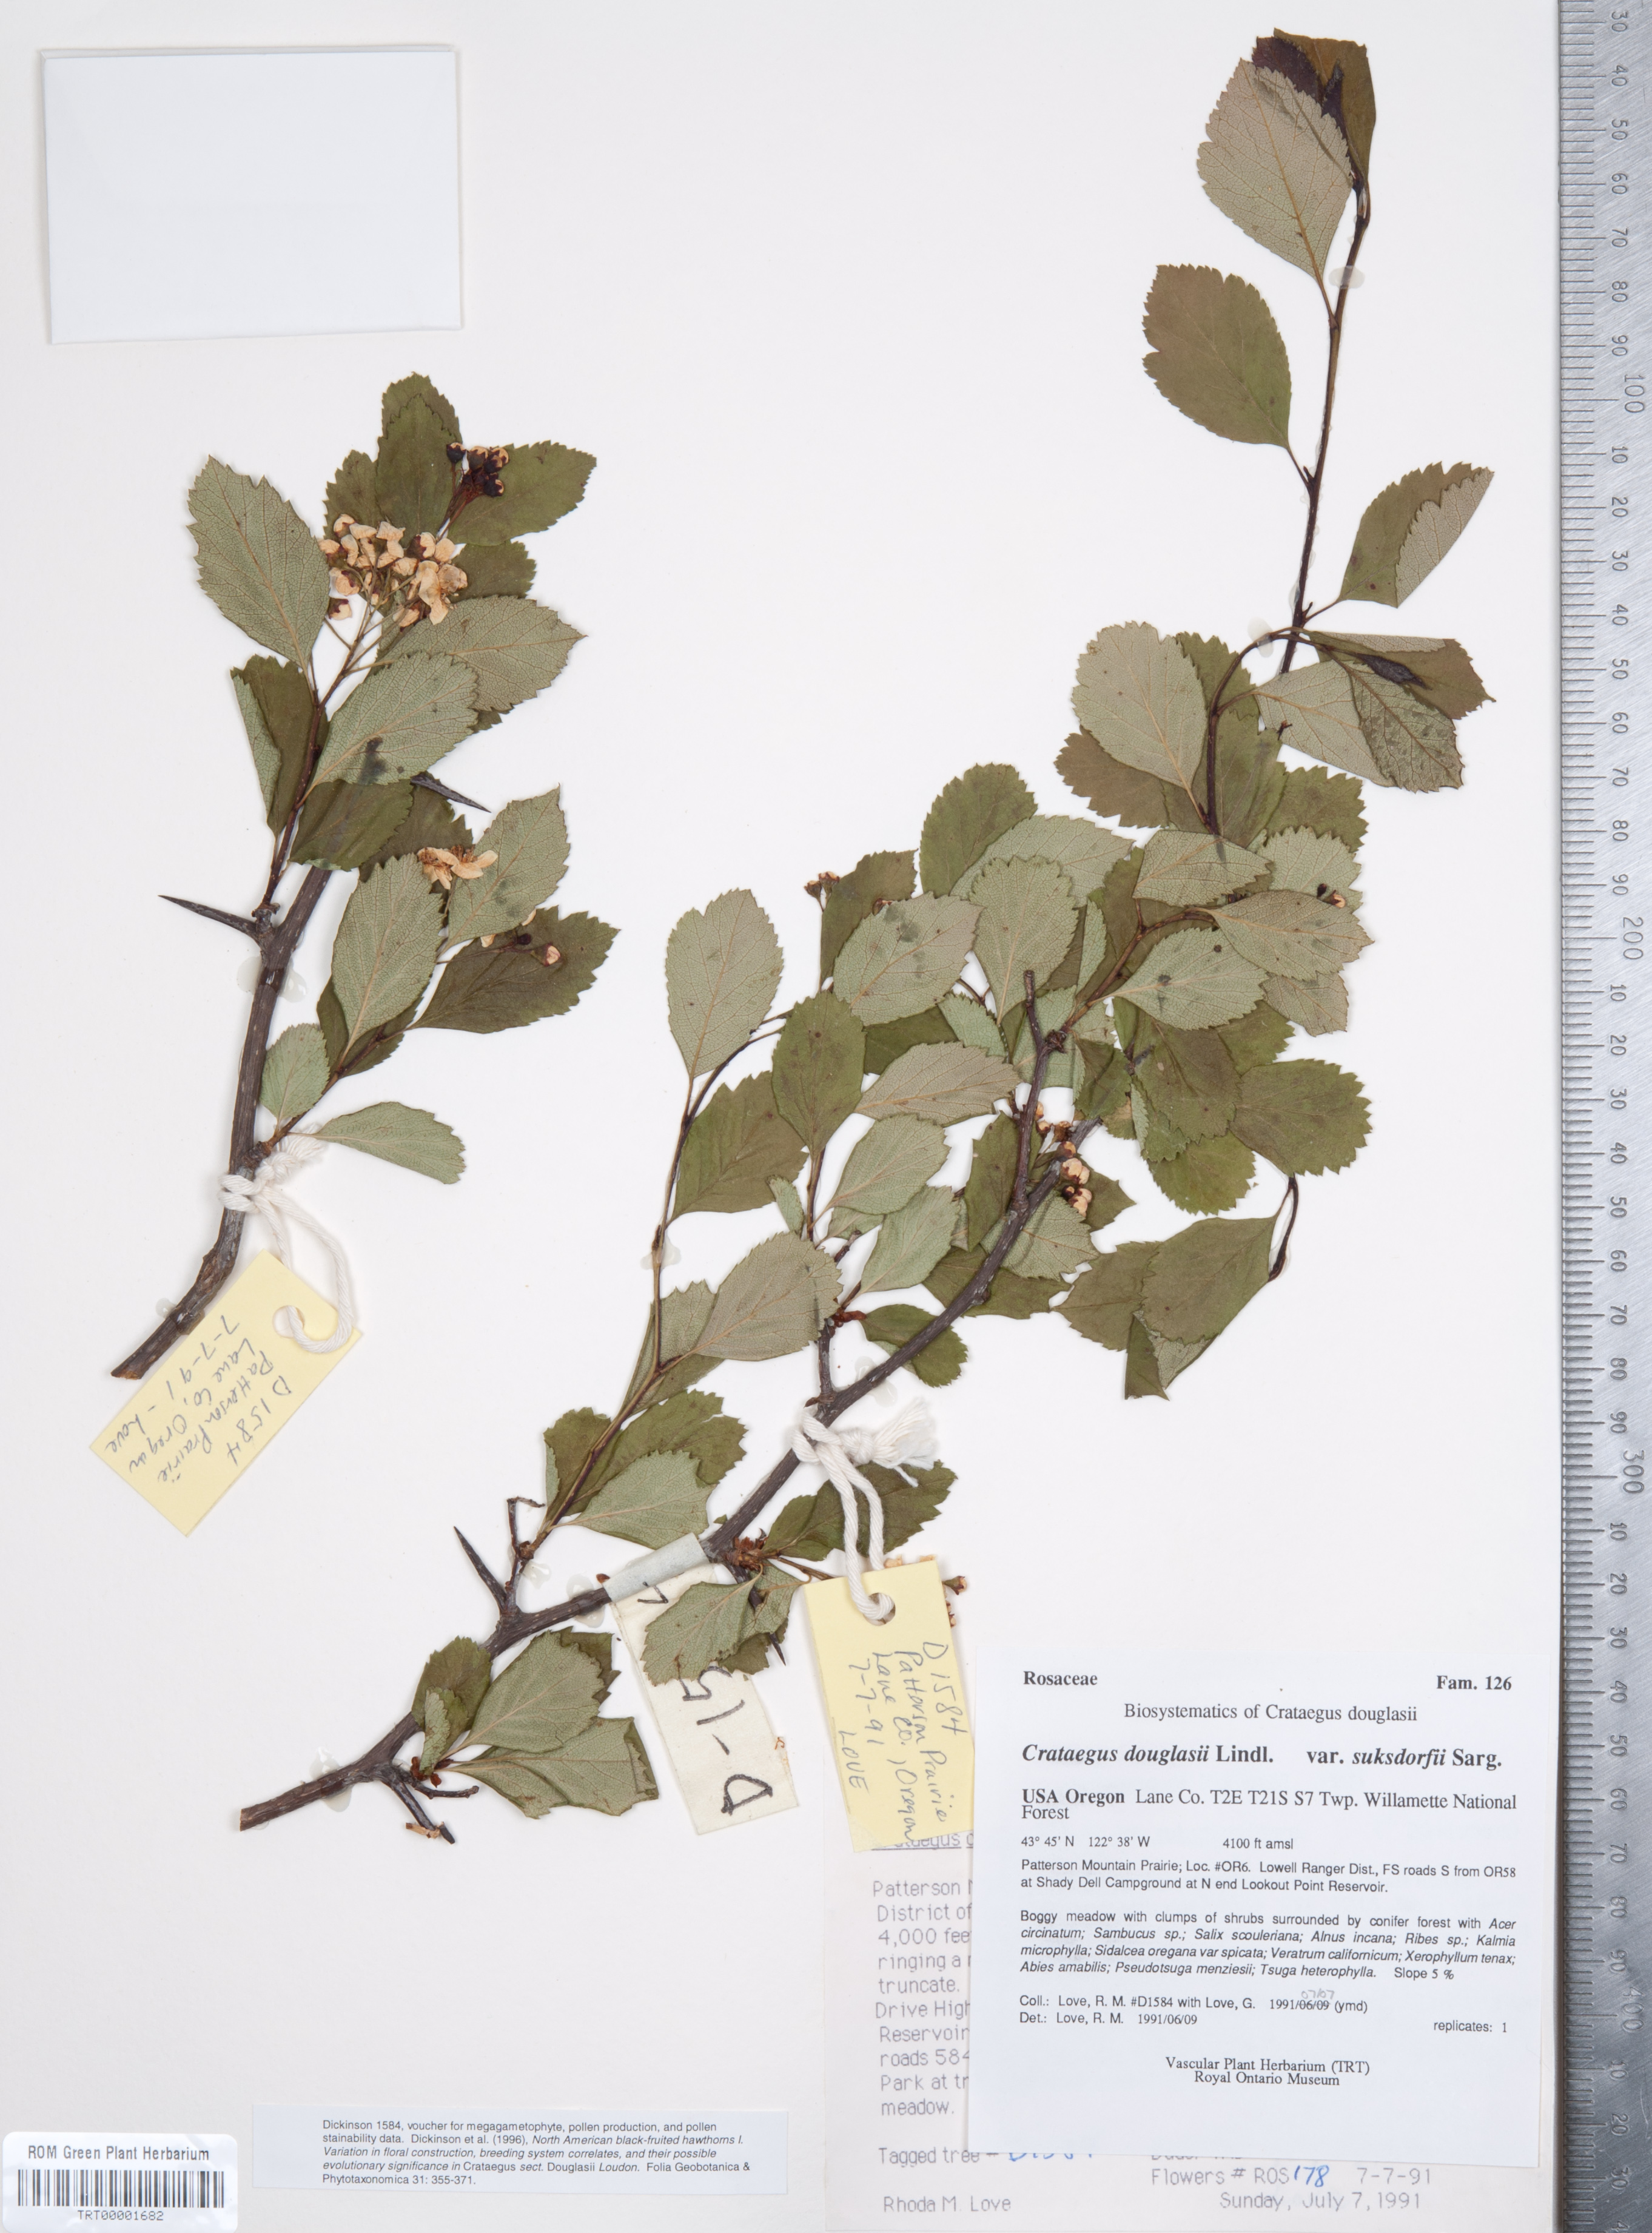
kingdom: Plantae
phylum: Tracheophyta
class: Magnoliopsida
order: Rosales
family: Rosaceae
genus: Crataegus
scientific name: Crataegus gaylussacia
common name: Huckleberry hawthorn
